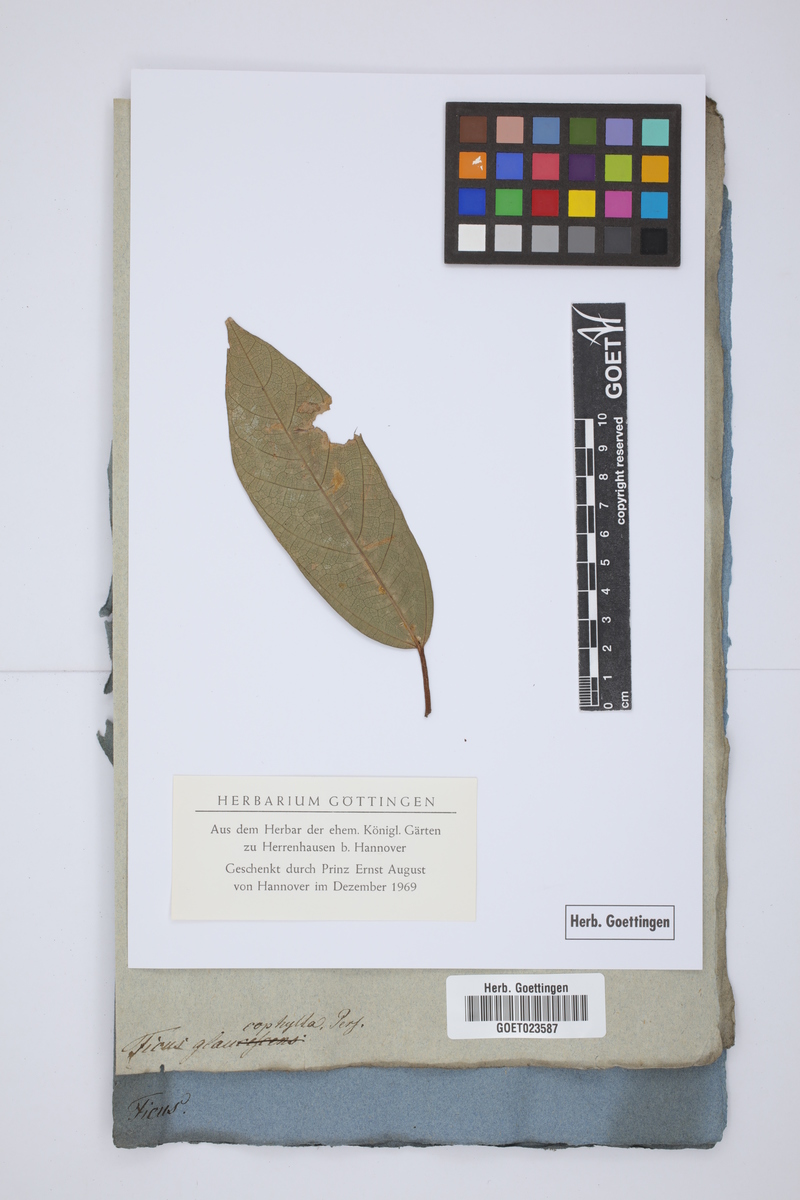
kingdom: Plantae
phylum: Tracheophyta
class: Magnoliopsida
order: Rosales
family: Moraceae
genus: Ficus
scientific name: Ficus cordata
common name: Namaqua rock fig
